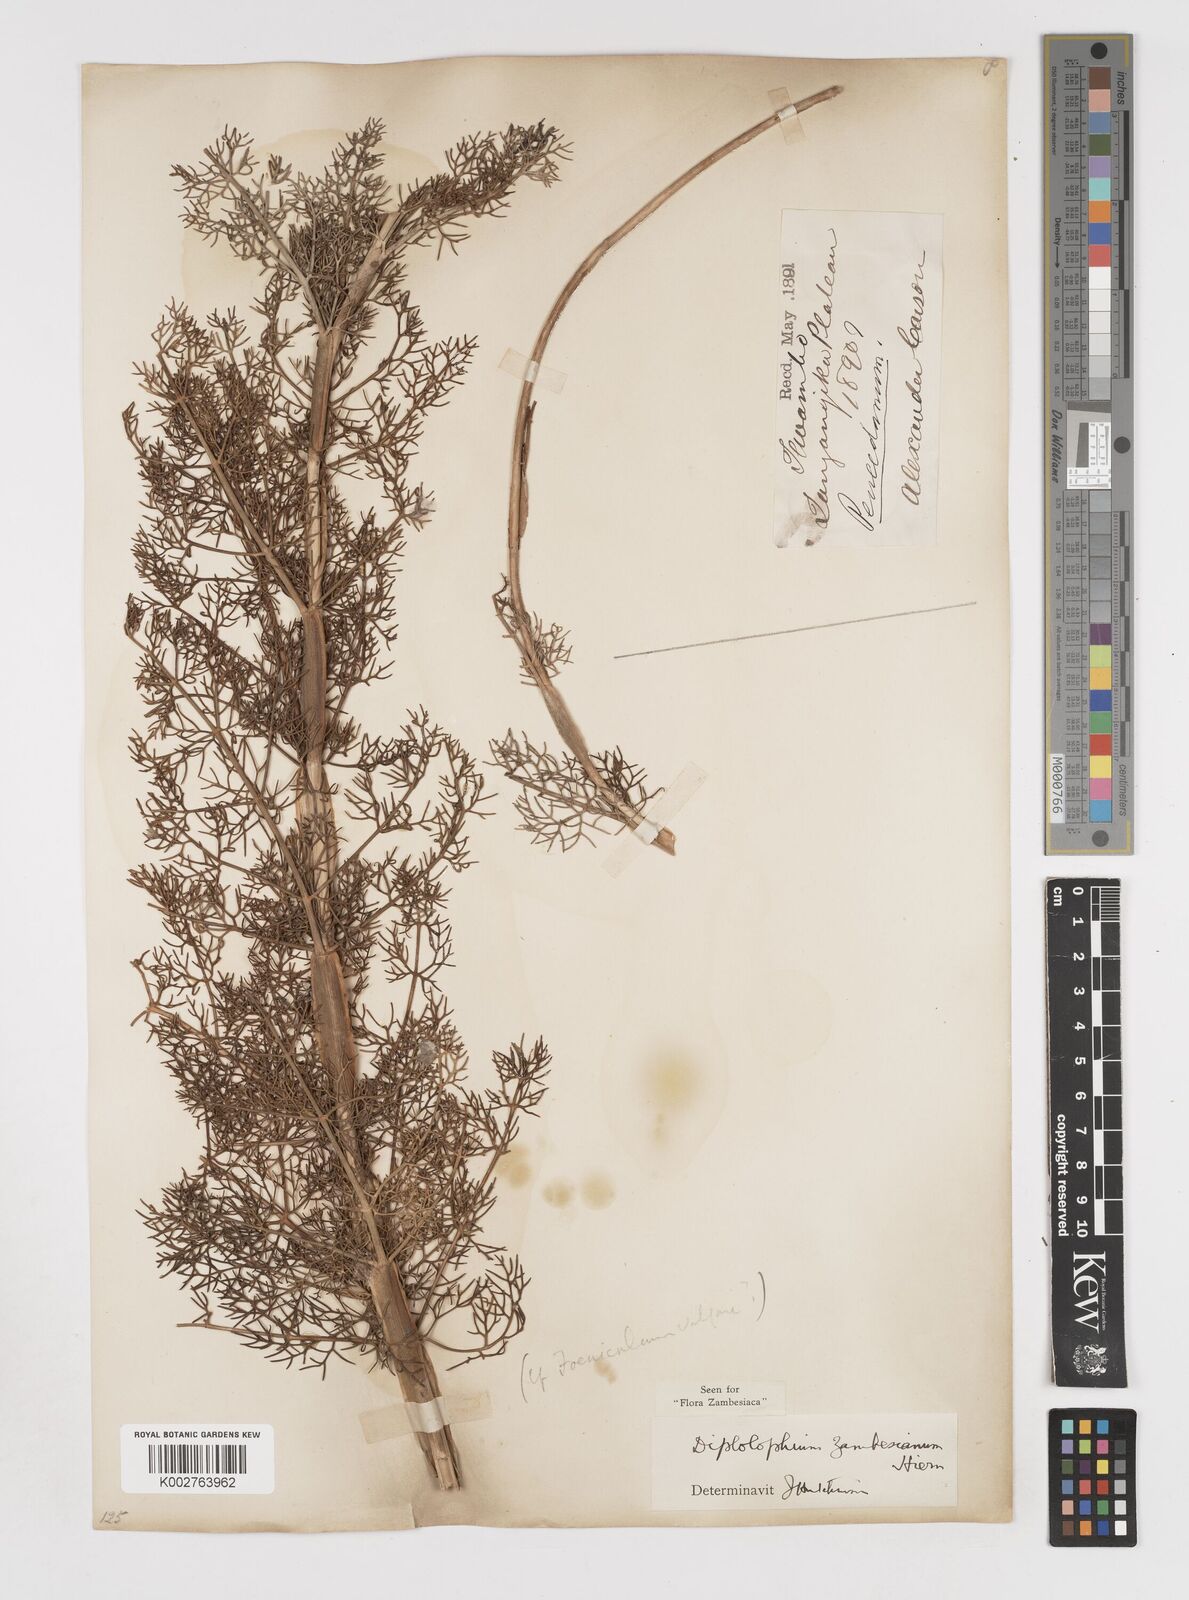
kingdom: Plantae
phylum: Tracheophyta
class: Magnoliopsida
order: Apiales
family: Apiaceae
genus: Diplolophium
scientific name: Diplolophium zambesianum
